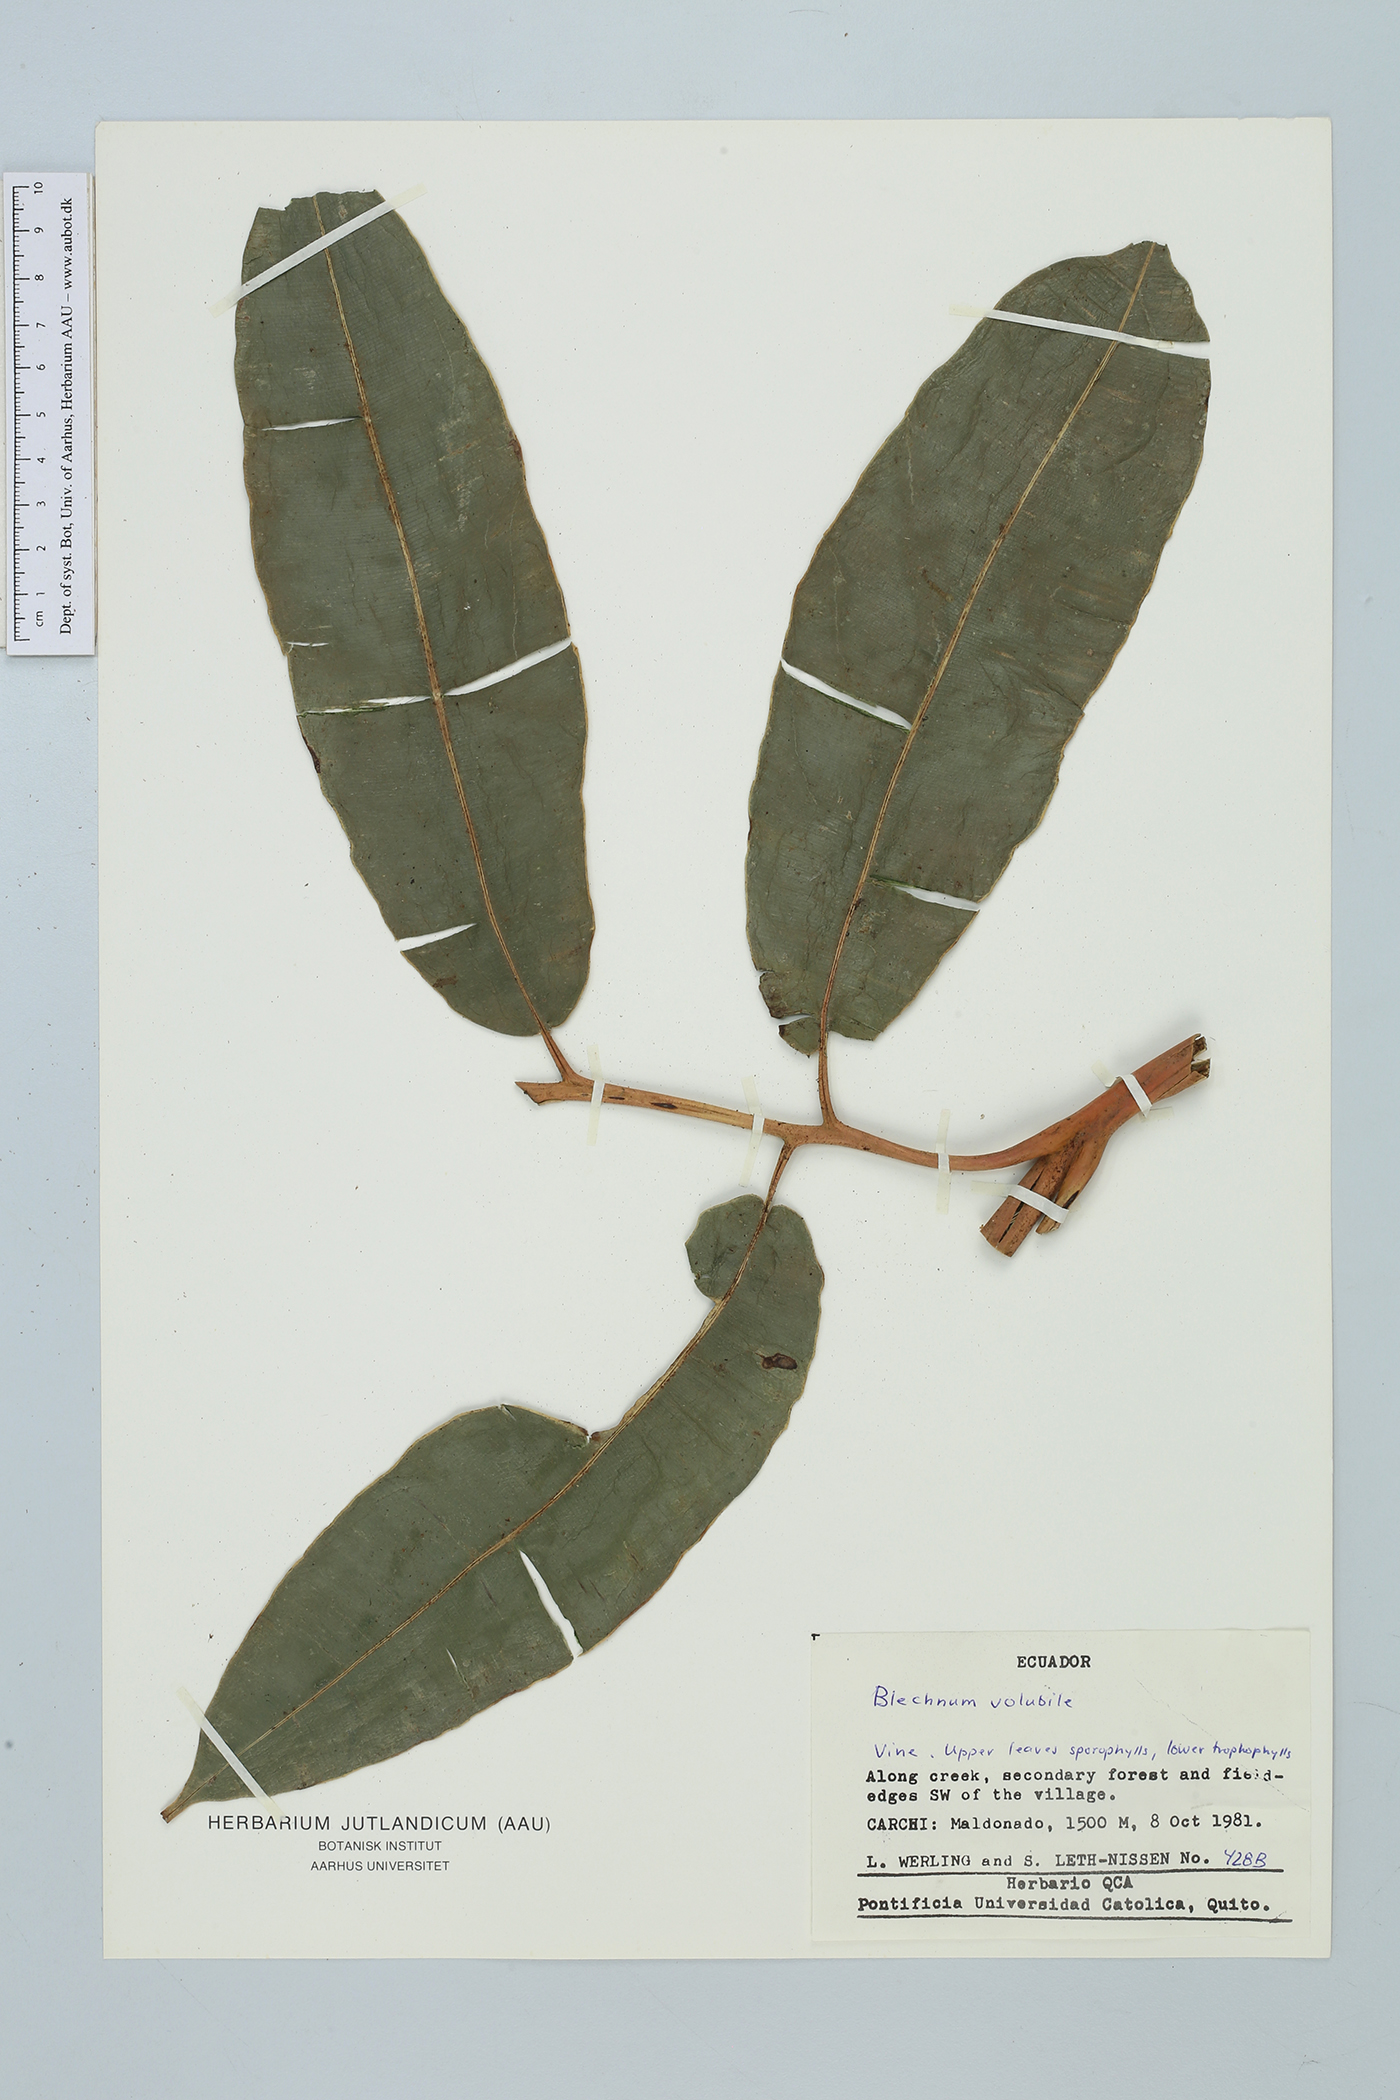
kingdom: Plantae
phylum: Tracheophyta
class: Polypodiopsida
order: Polypodiales
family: Blechnaceae
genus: Salpichlaena
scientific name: Salpichlaena volubilis
